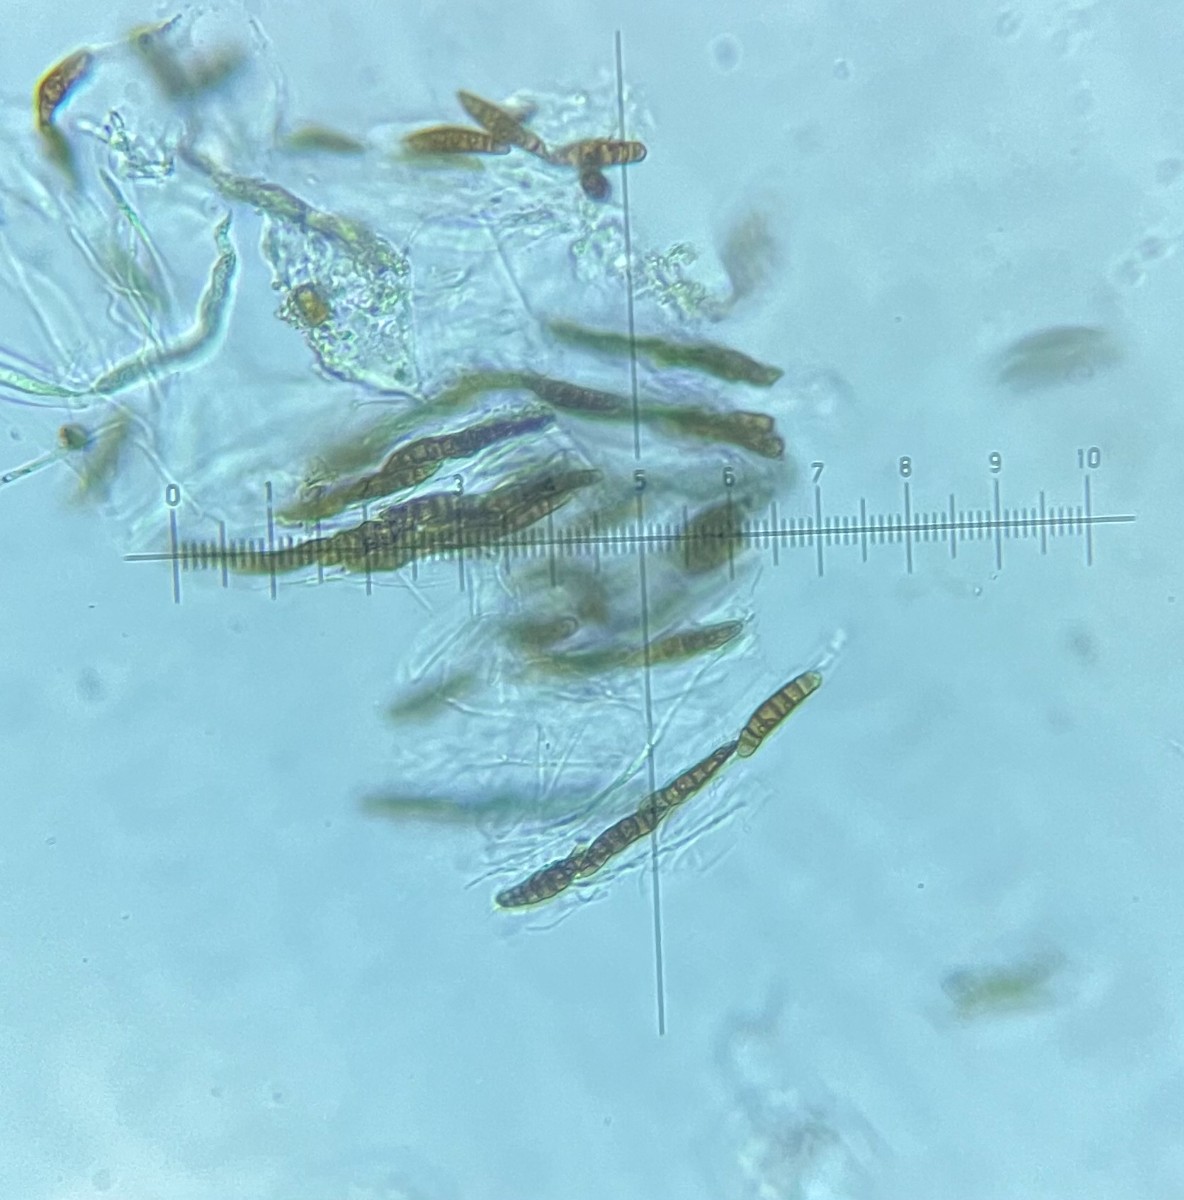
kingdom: Fungi
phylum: Ascomycota
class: Dothideomycetes
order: Pleosporales
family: Thyridariaceae
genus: Thyridaria
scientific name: Thyridaria macrostomoides
